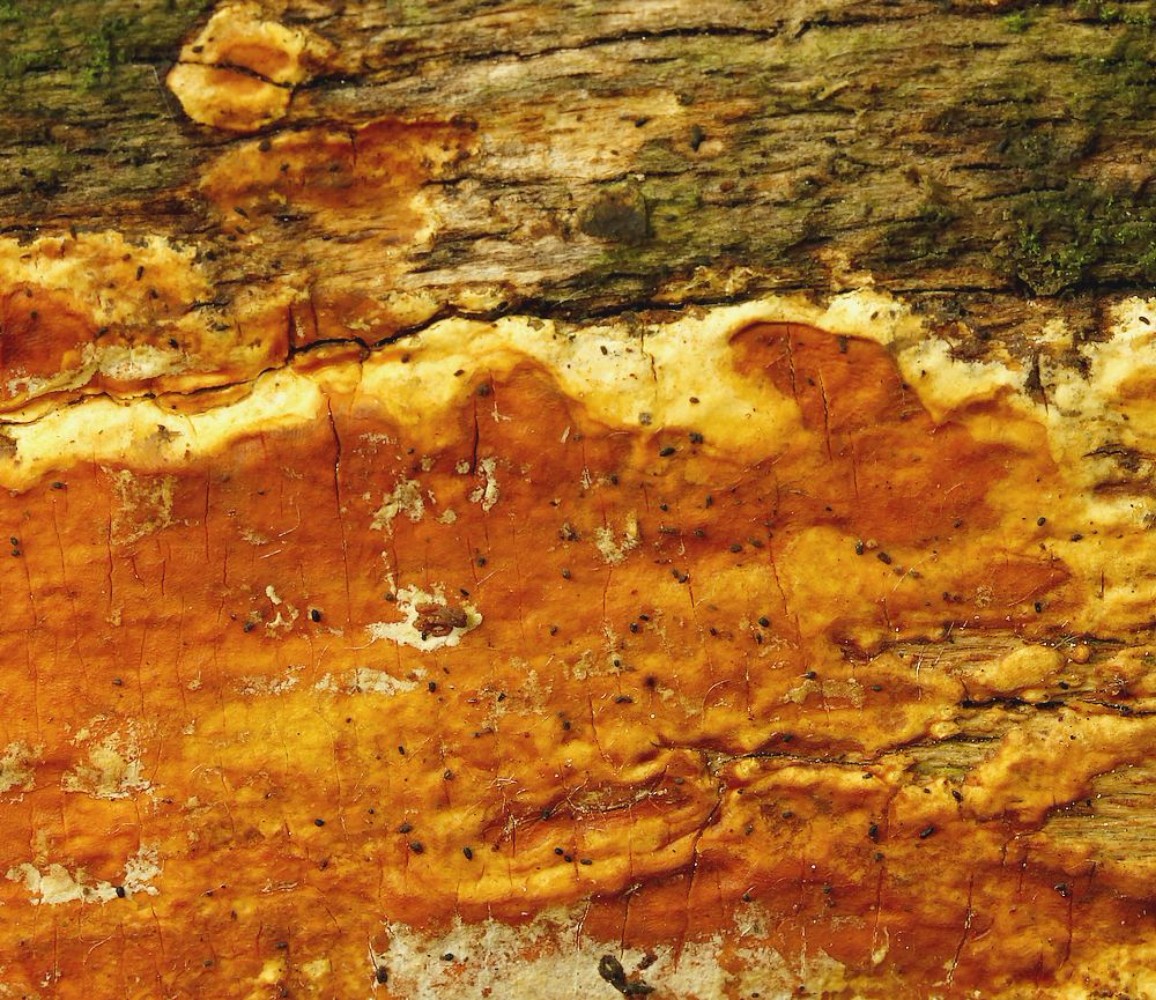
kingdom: Fungi
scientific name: Fungi
